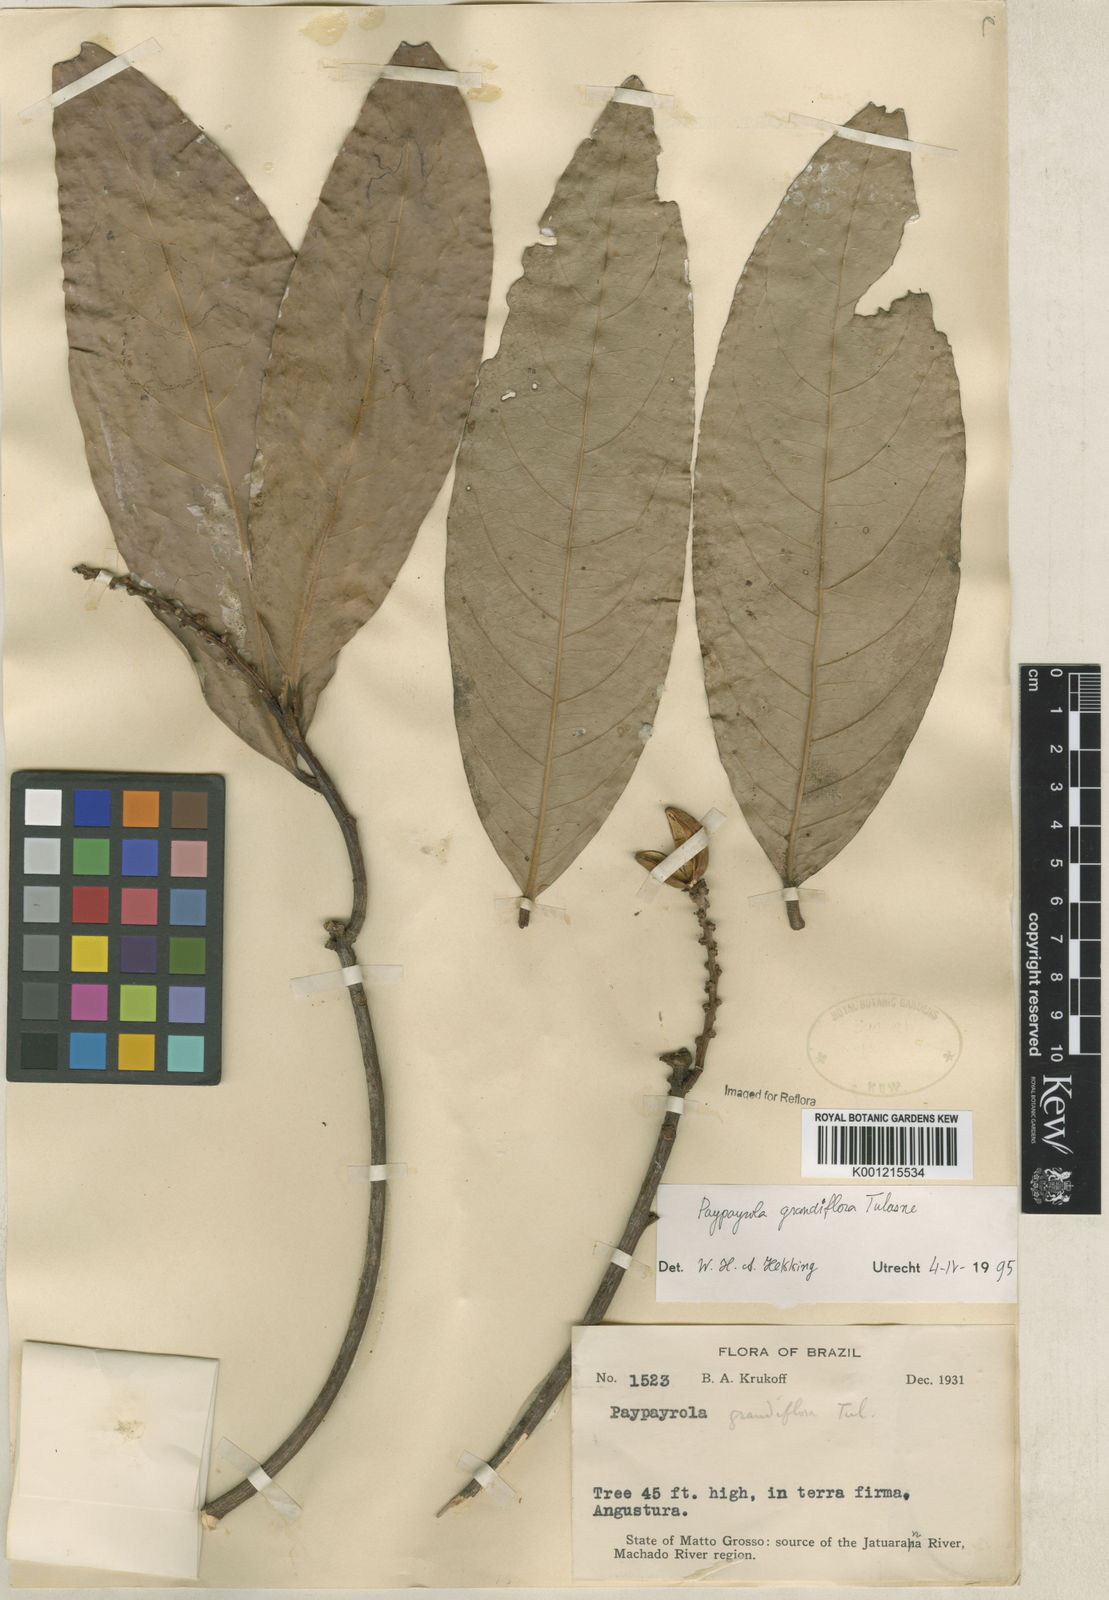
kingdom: Plantae
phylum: Tracheophyta
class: Magnoliopsida
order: Malpighiales
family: Violaceae
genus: Paypayrola
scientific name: Paypayrola grandiflora
